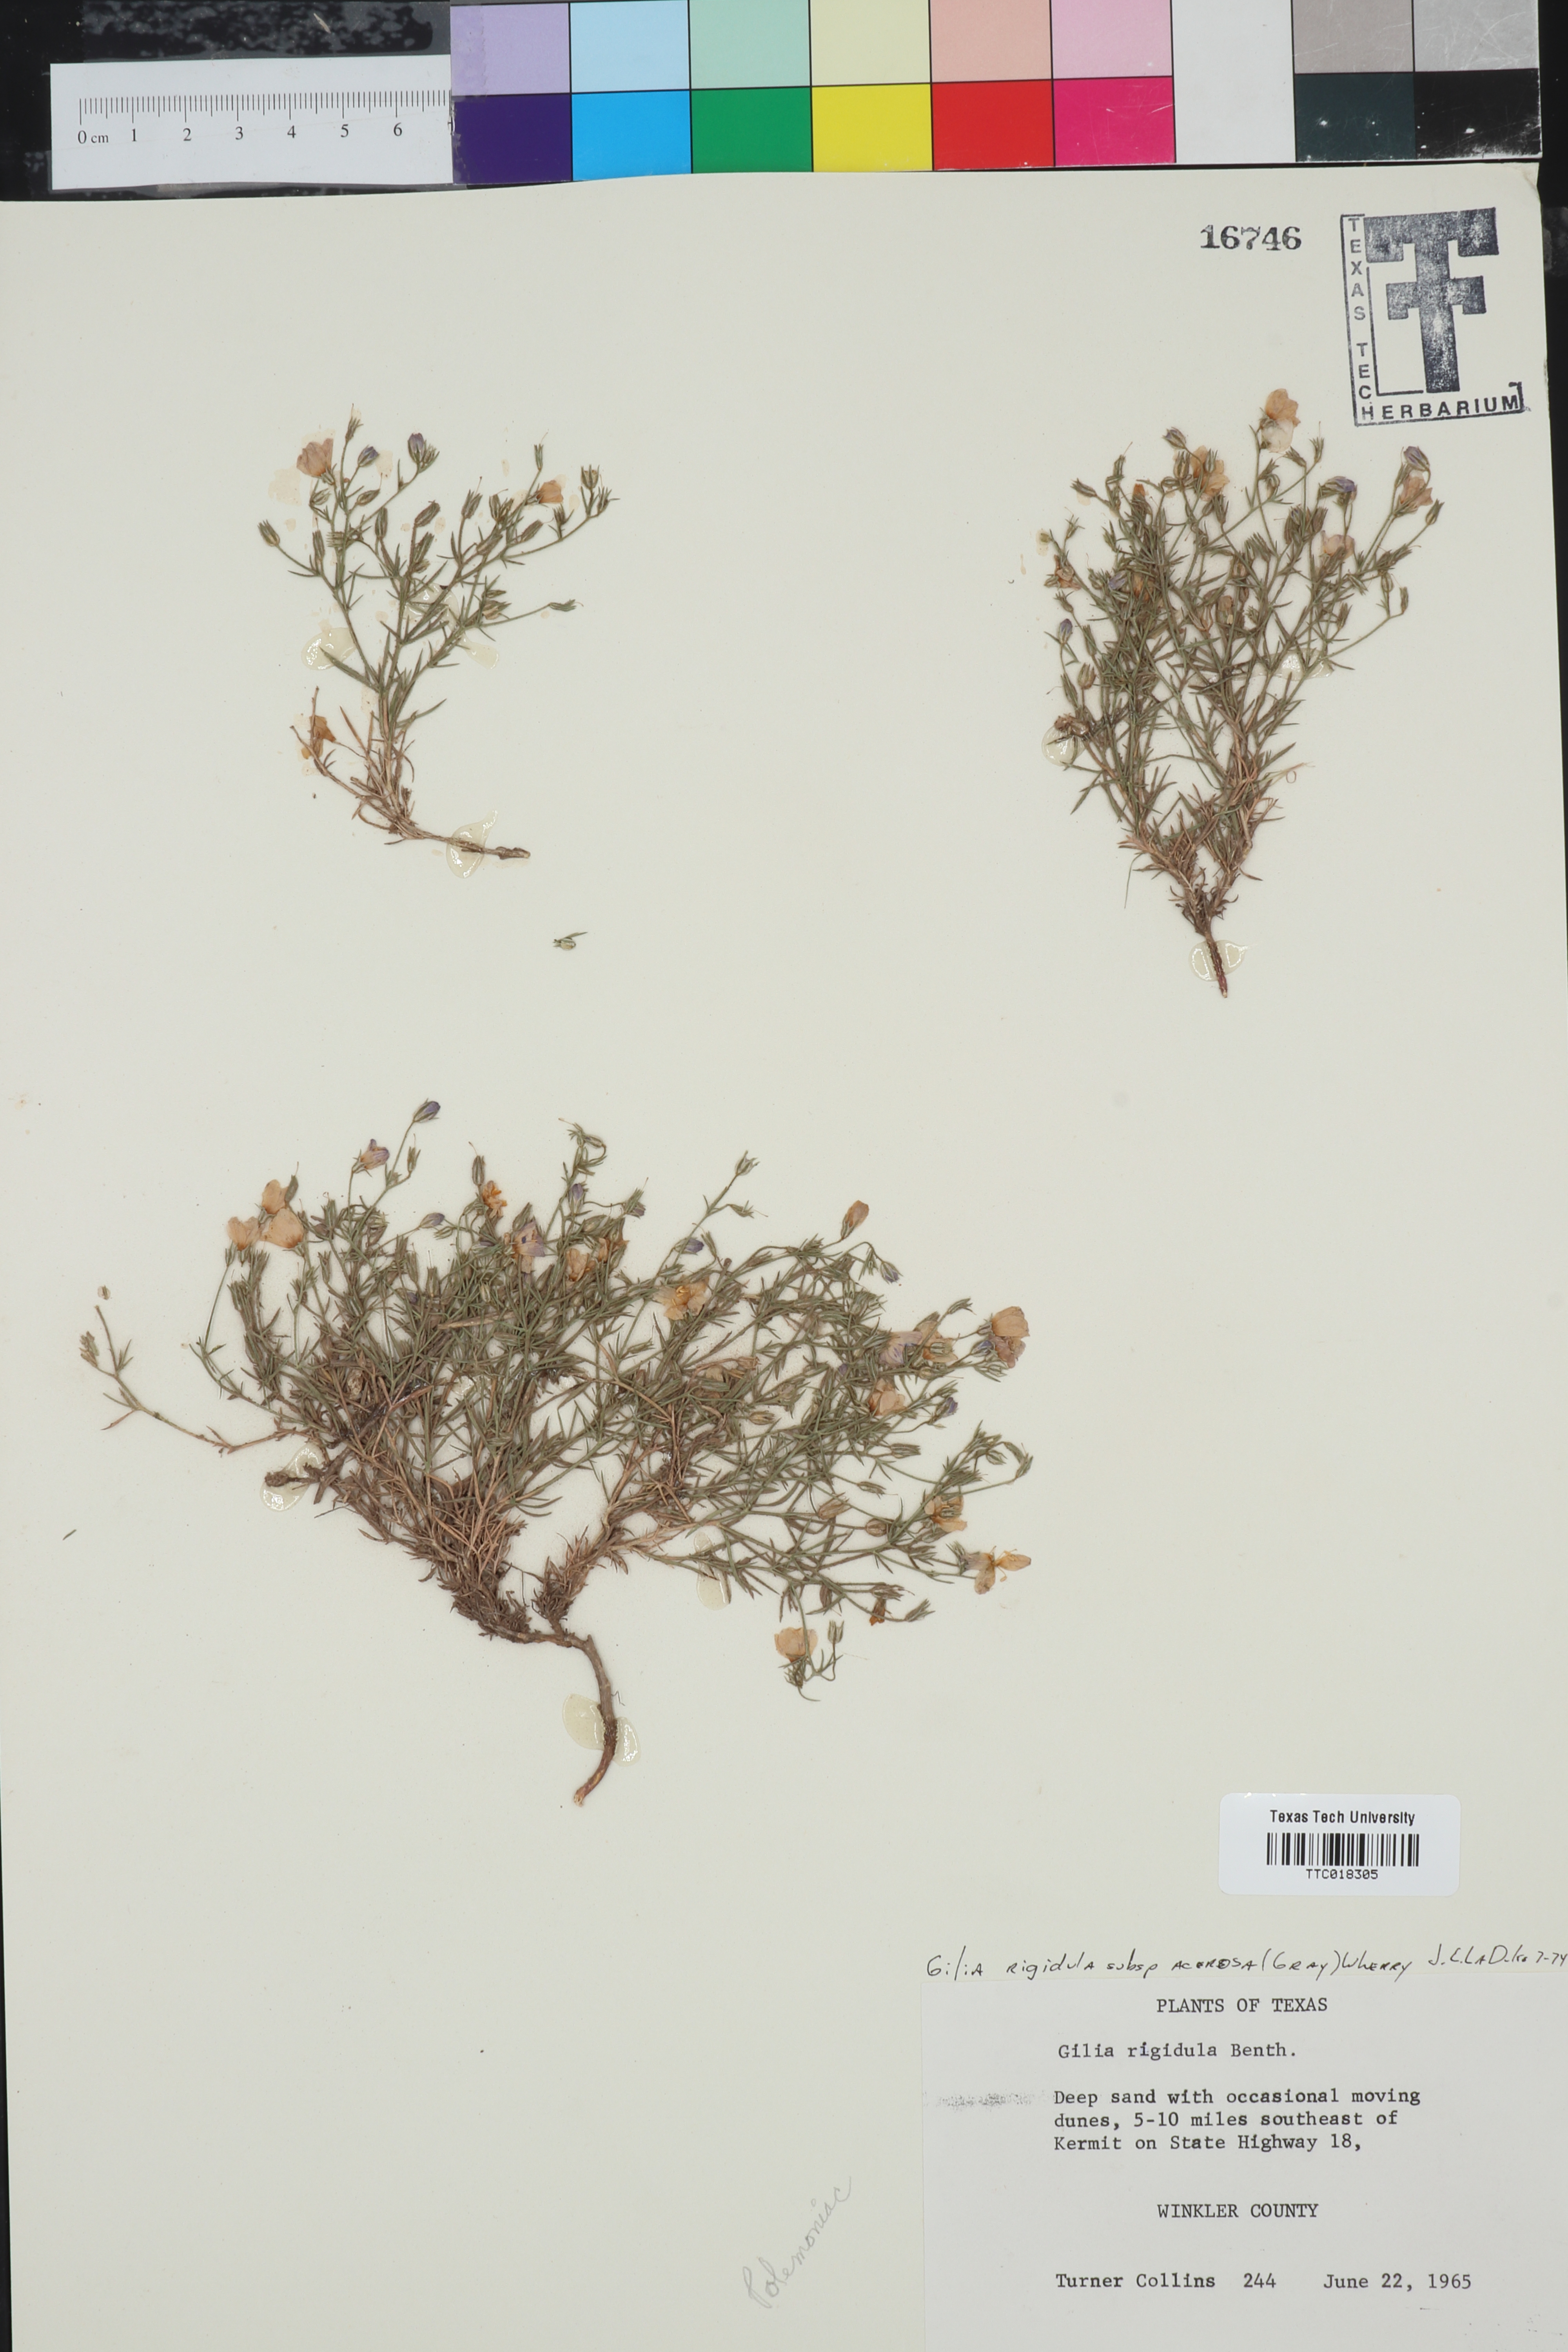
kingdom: Plantae
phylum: Tracheophyta
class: Magnoliopsida
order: Ericales
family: Polemoniaceae
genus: Giliastrum
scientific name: Giliastrum acerosum
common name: Bluebowls
